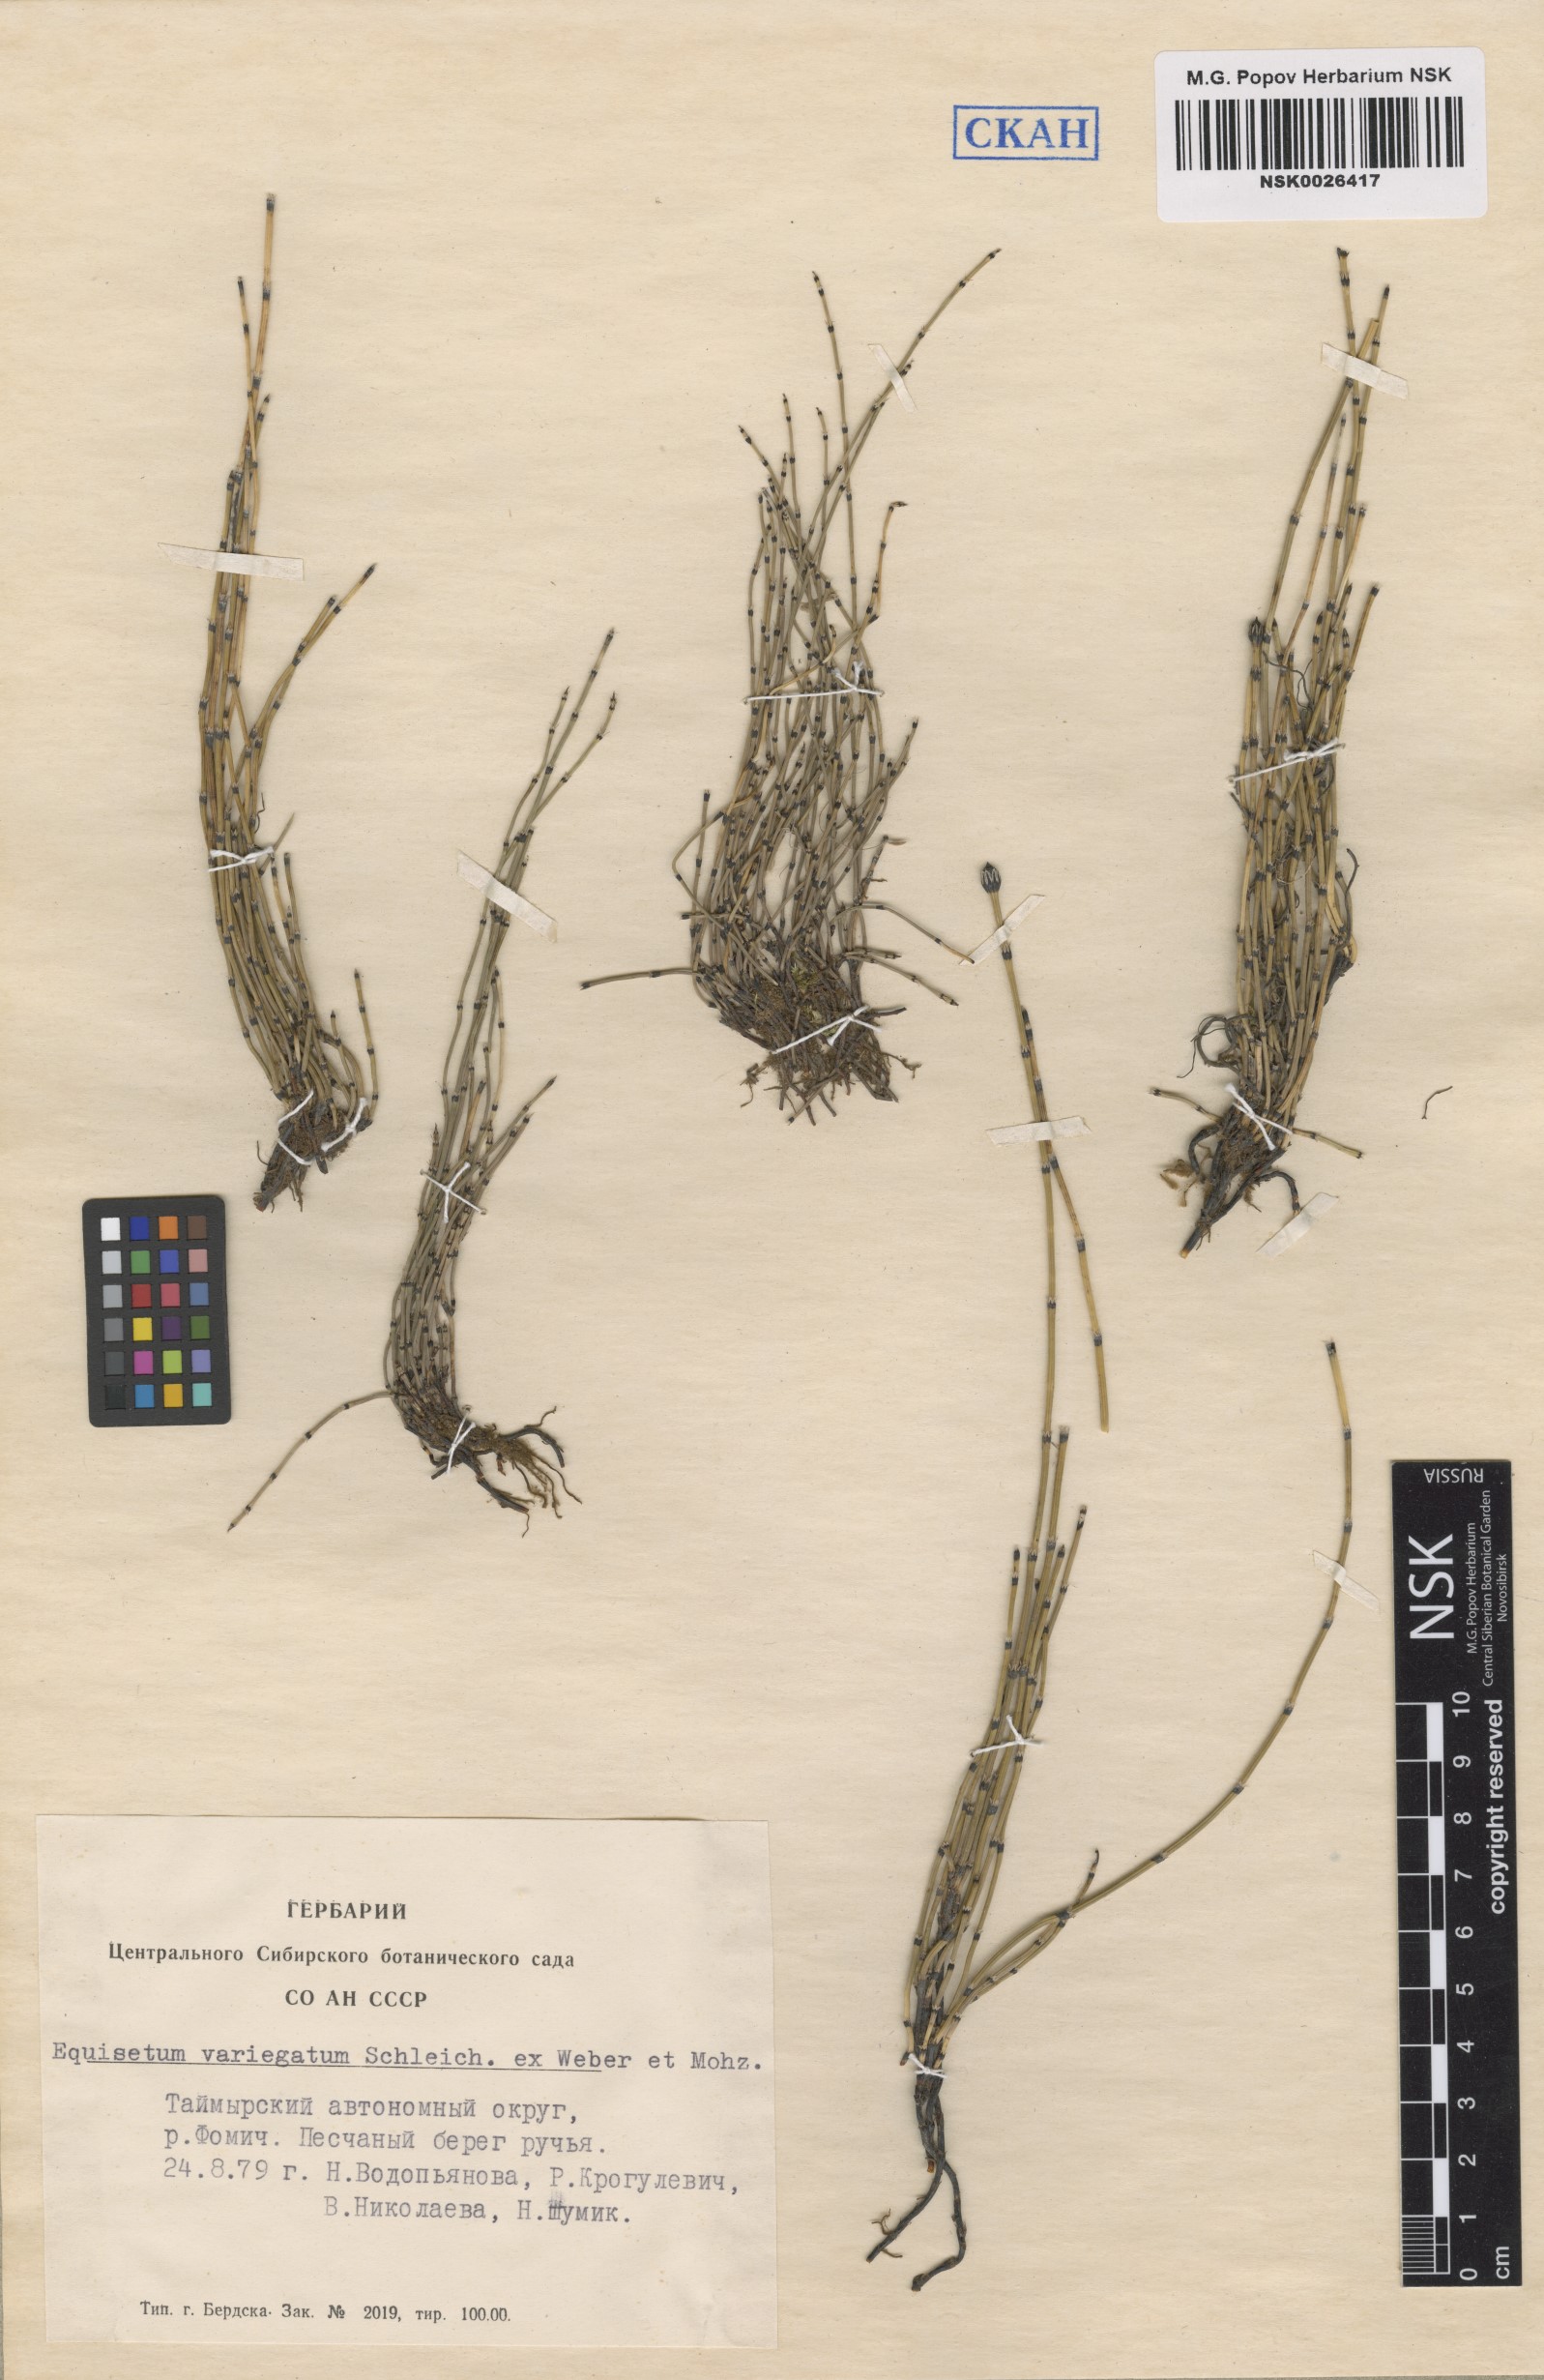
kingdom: Plantae
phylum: Tracheophyta
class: Polypodiopsida
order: Equisetales
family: Equisetaceae
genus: Equisetum
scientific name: Equisetum variegatum
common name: Variegated horsetail
